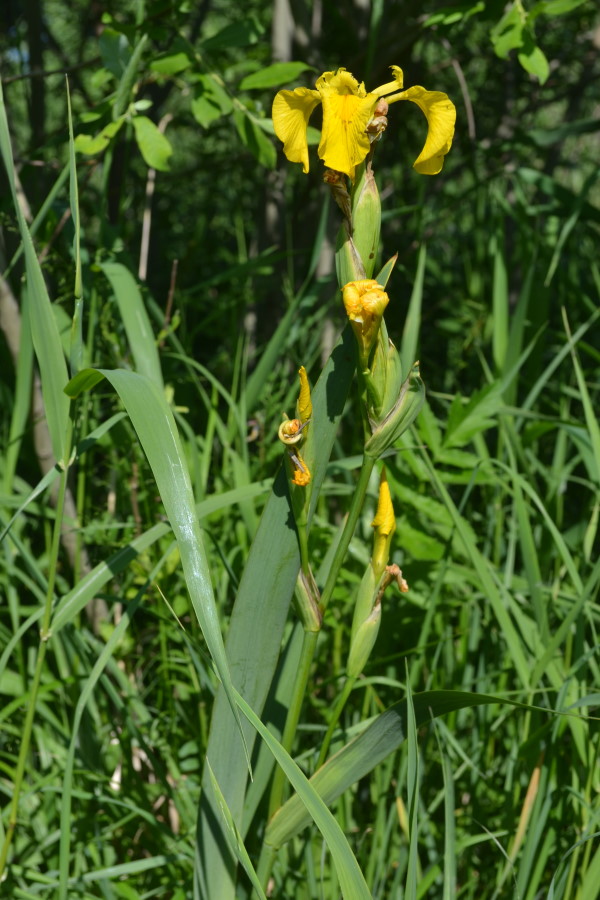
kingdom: Plantae
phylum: Tracheophyta
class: Liliopsida
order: Asparagales
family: Iridaceae
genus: Iris
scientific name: Iris pseudacorus
